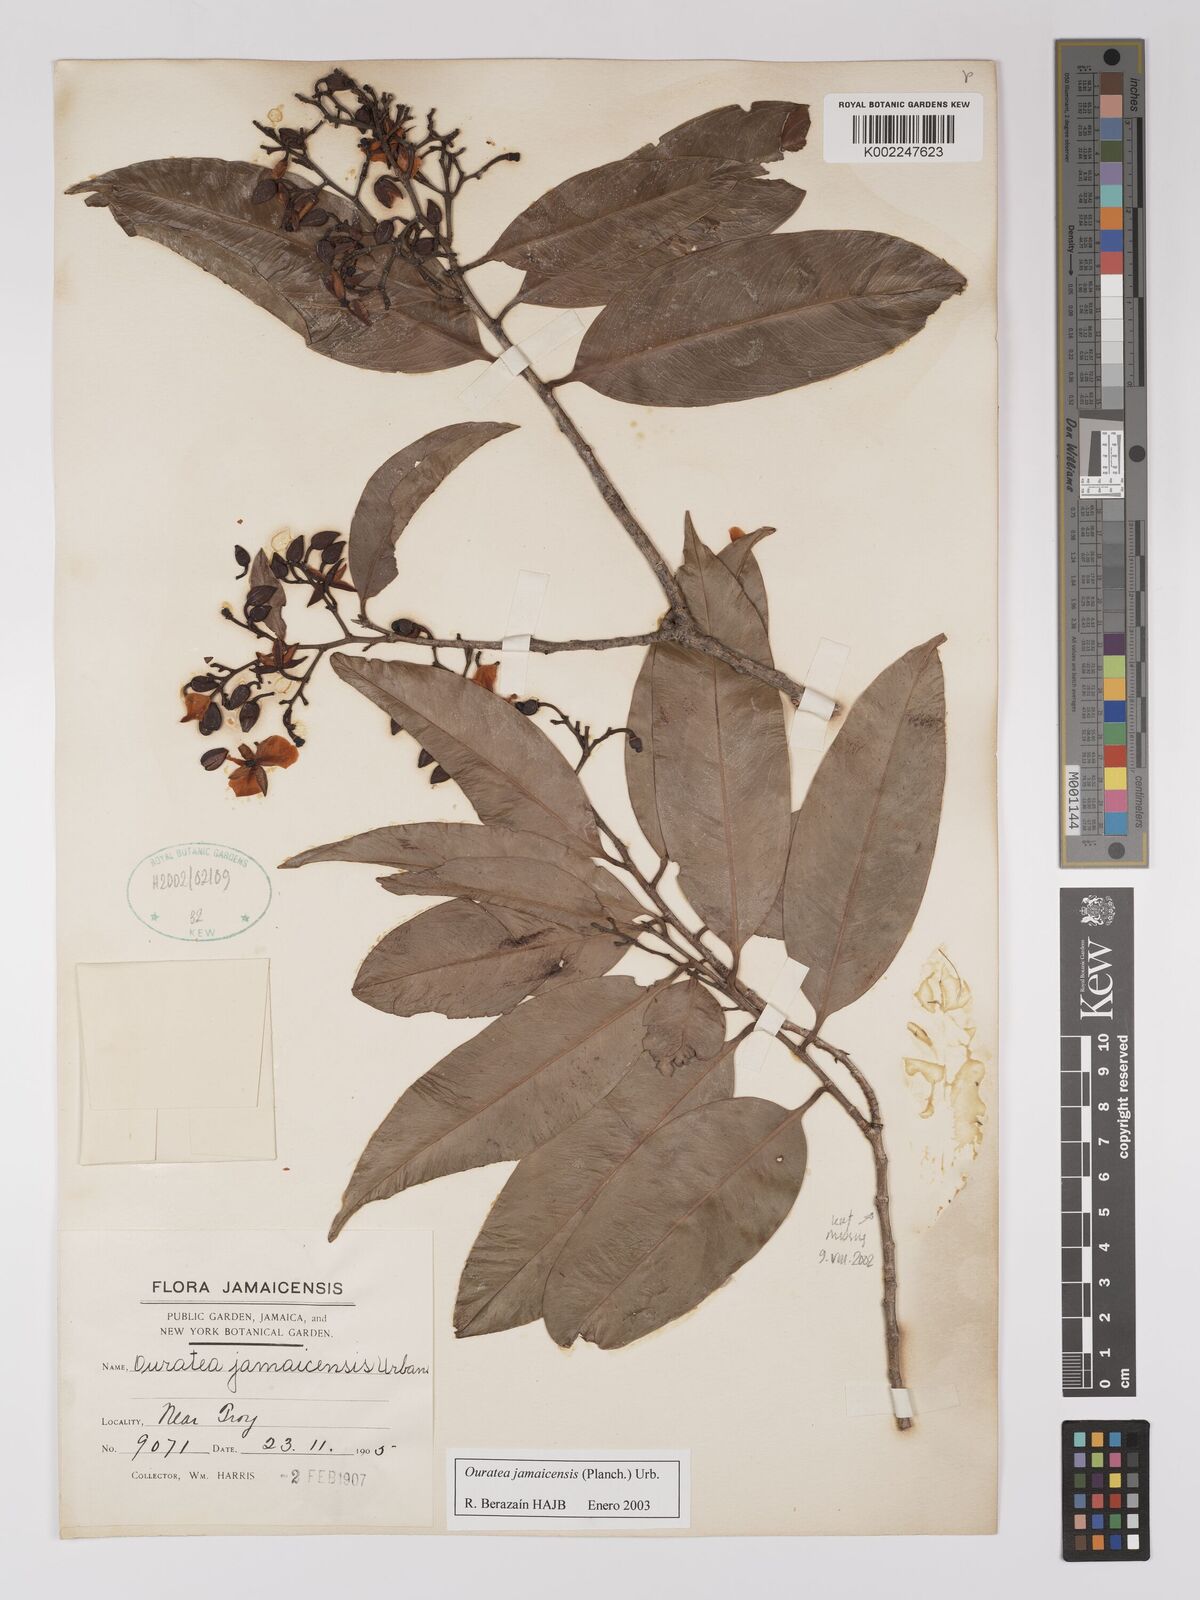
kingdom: Plantae
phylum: Tracheophyta
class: Magnoliopsida
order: Malpighiales
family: Ochnaceae
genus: Ouratea
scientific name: Ouratea jamaicensis
